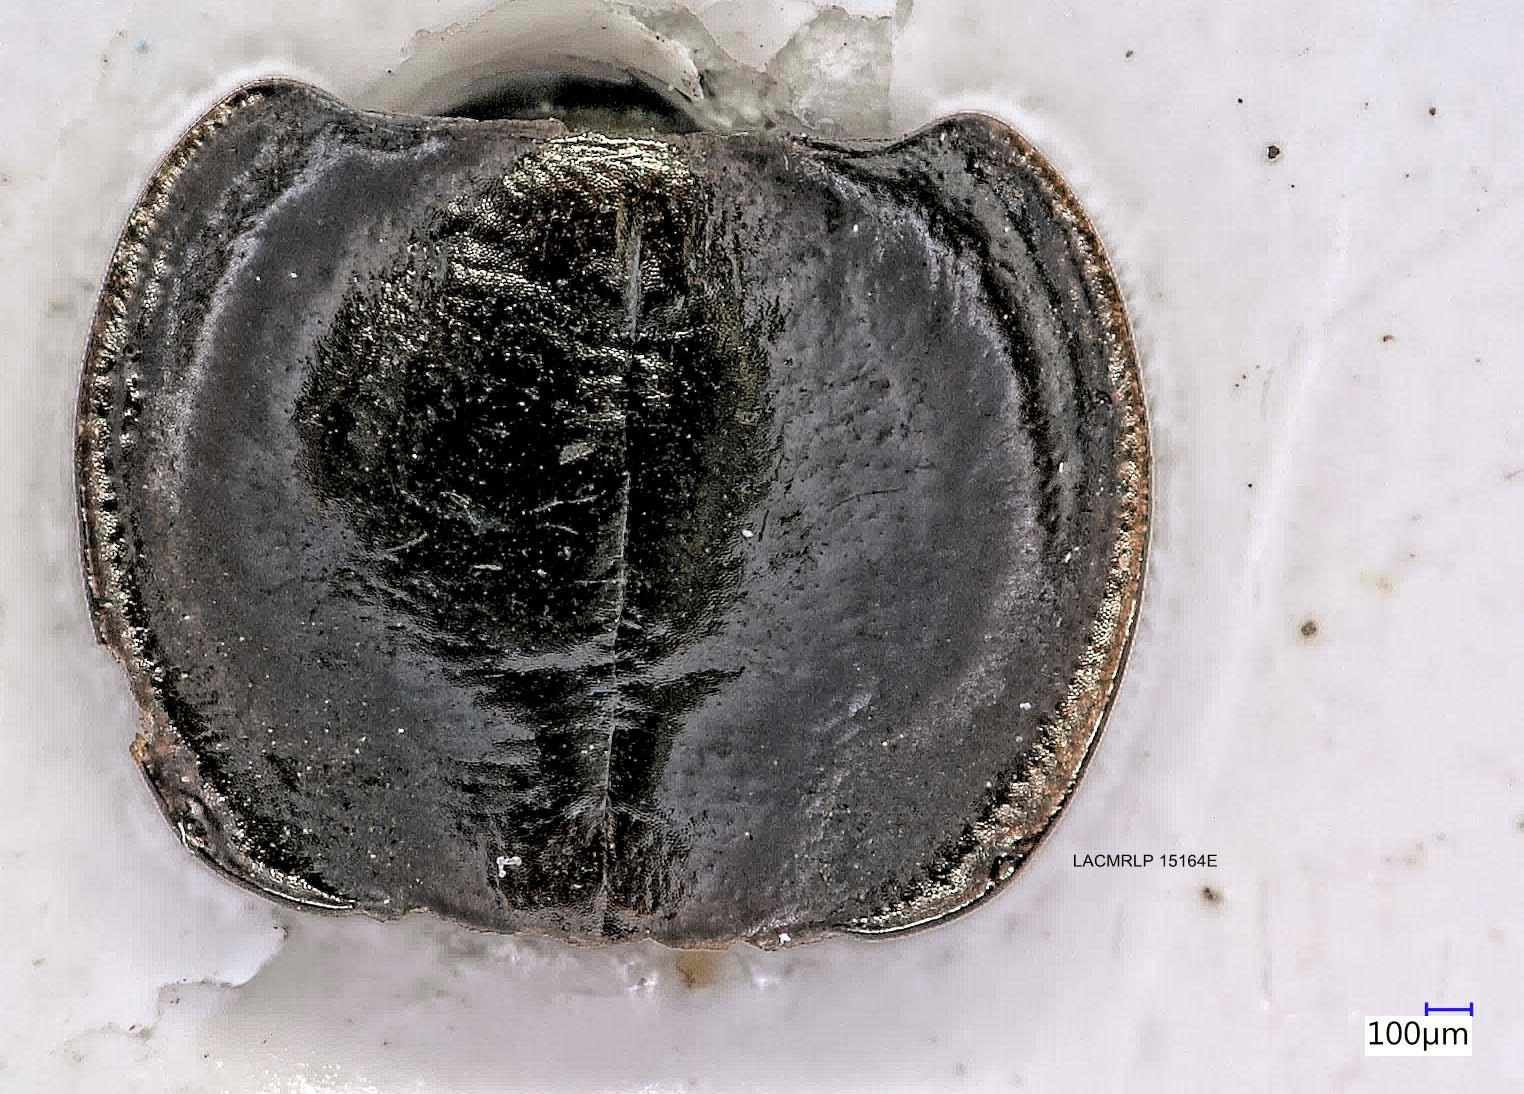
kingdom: Animalia
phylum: Arthropoda
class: Insecta
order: Coleoptera
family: Carabidae
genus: Tanystoma
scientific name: Tanystoma maculicolle
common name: Tule beetle
